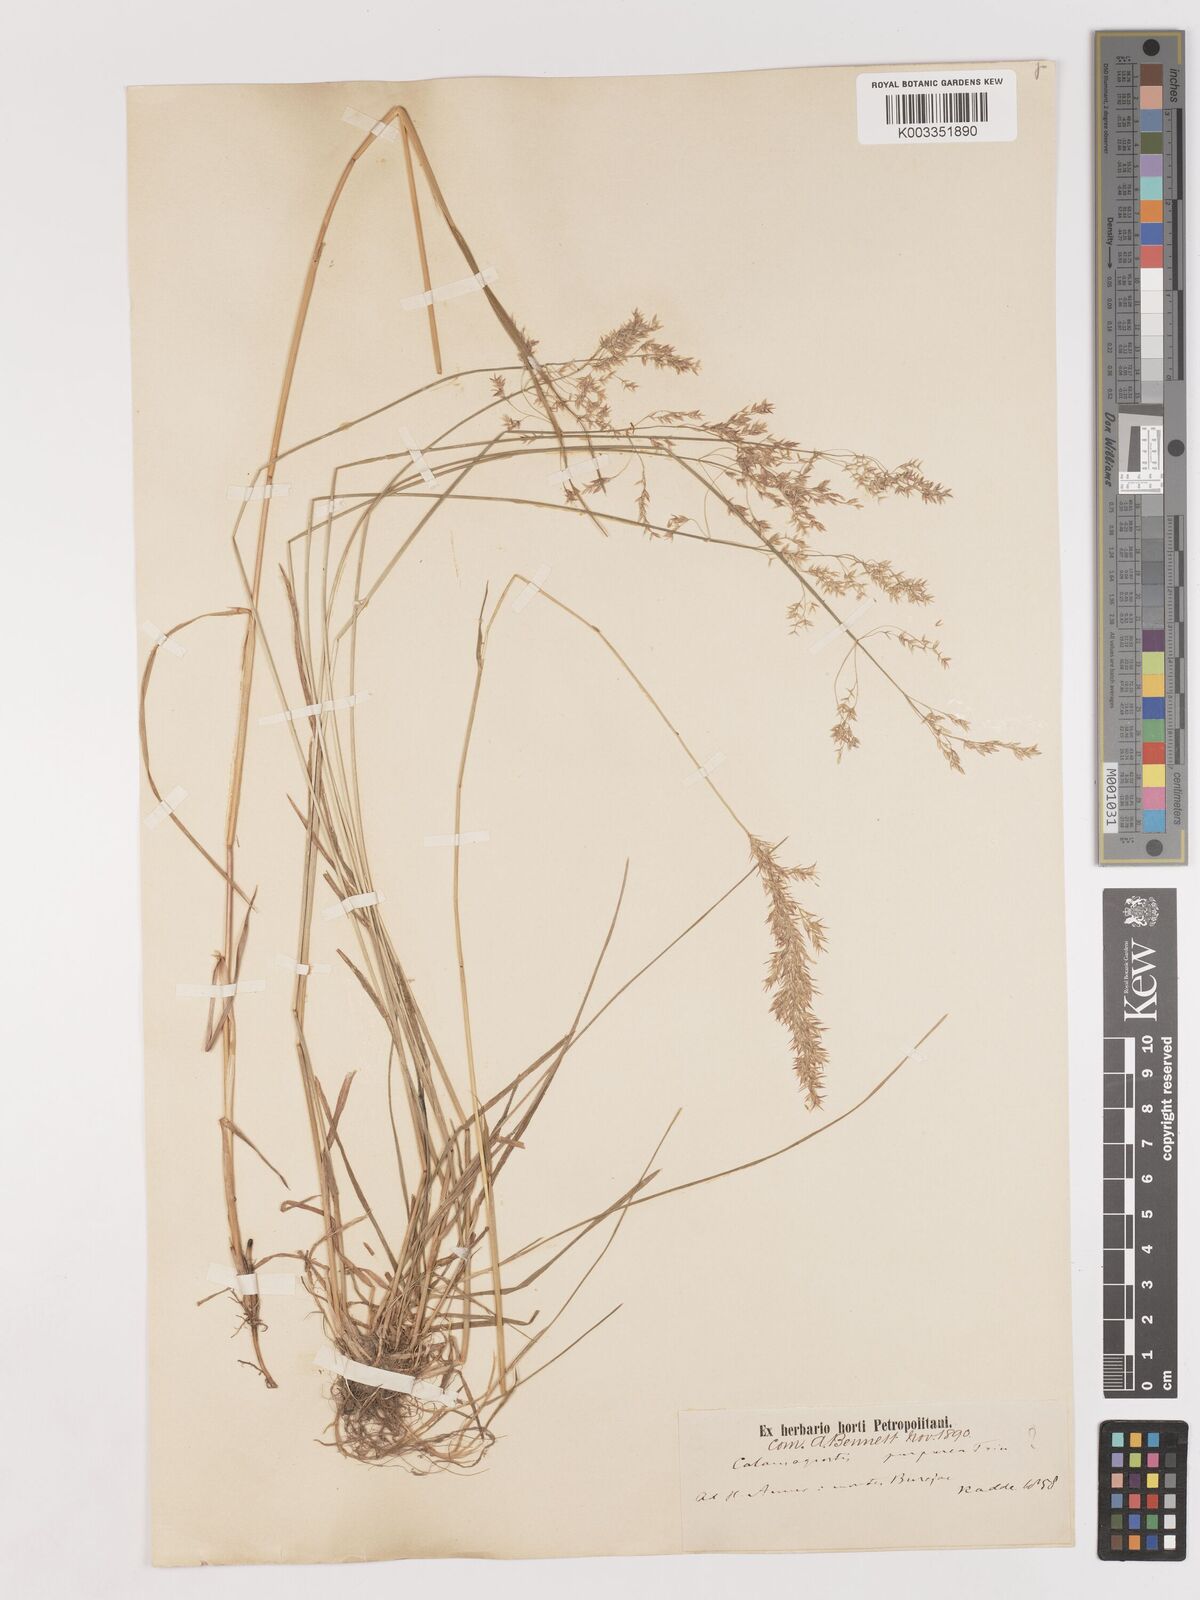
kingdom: Plantae
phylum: Tracheophyta
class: Liliopsida
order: Poales
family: Poaceae
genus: Calamagrostis
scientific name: Calamagrostis purpurea
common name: Scandinavian small-reed
